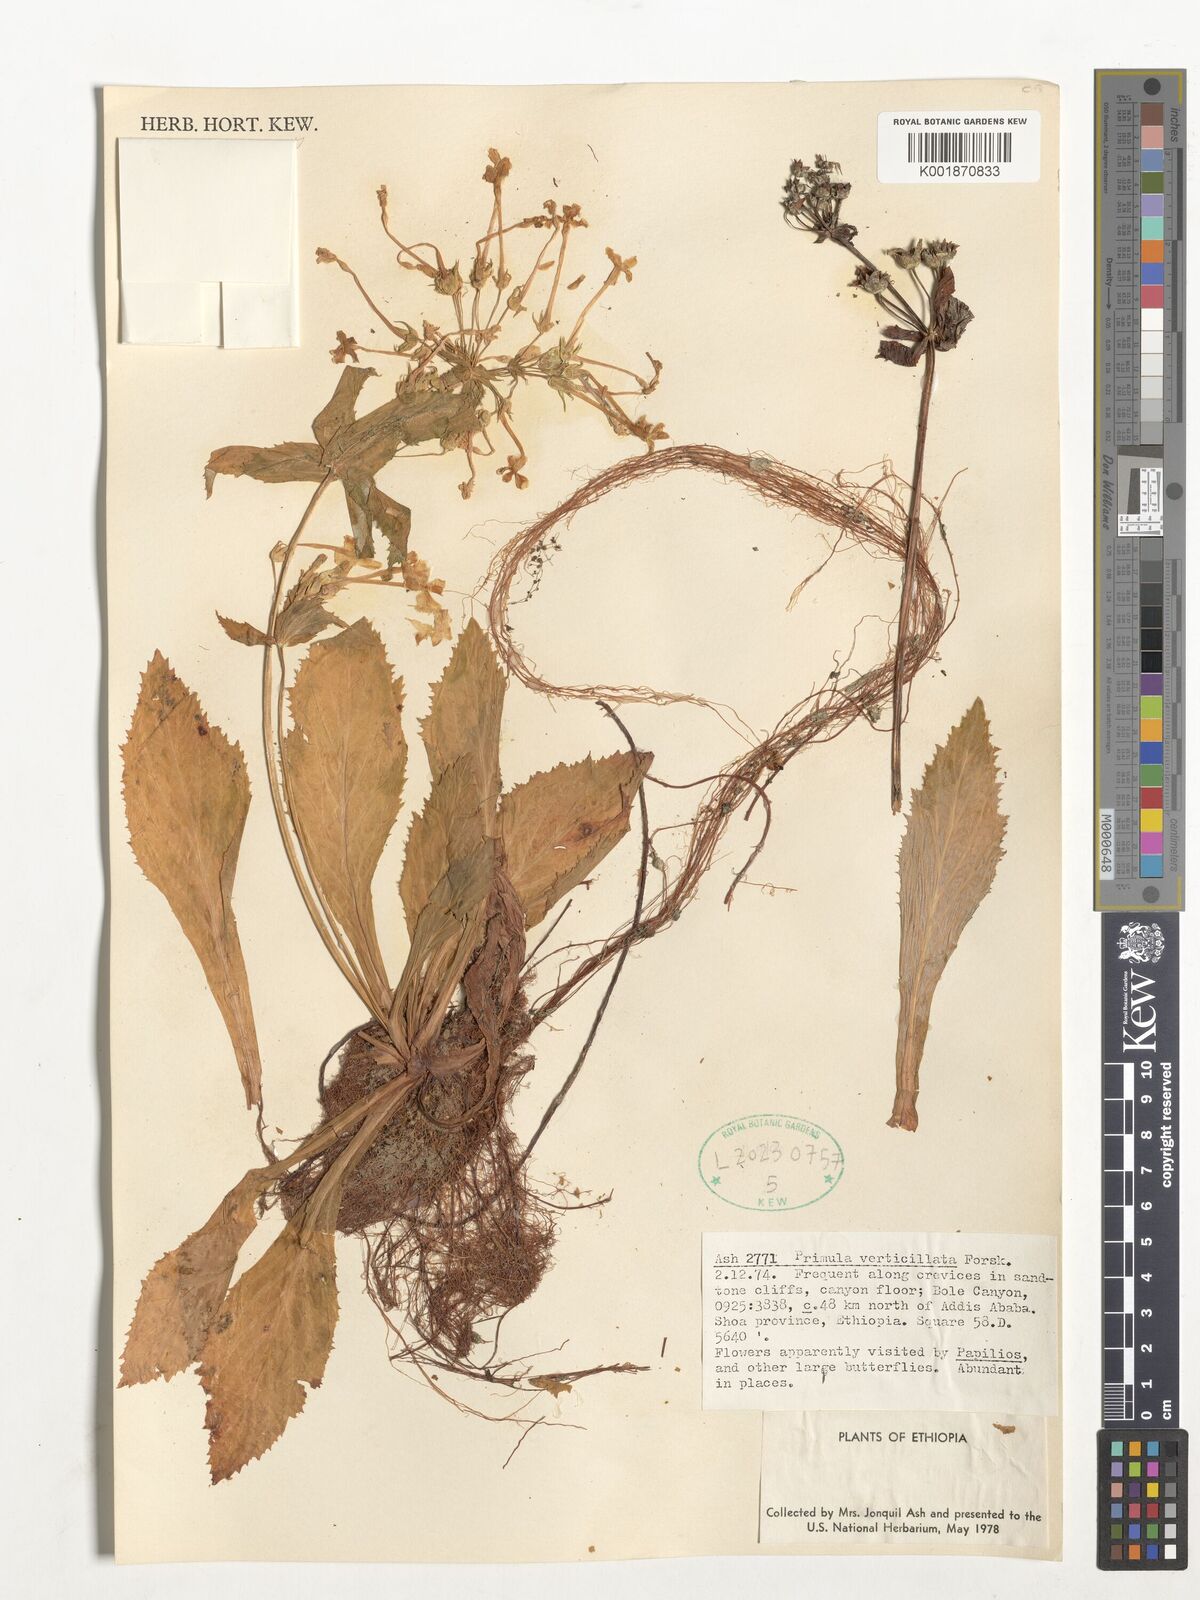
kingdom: Plantae
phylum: Tracheophyta
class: Magnoliopsida
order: Ericales
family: Primulaceae
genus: Evotrochis
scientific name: Evotrochis simensis
